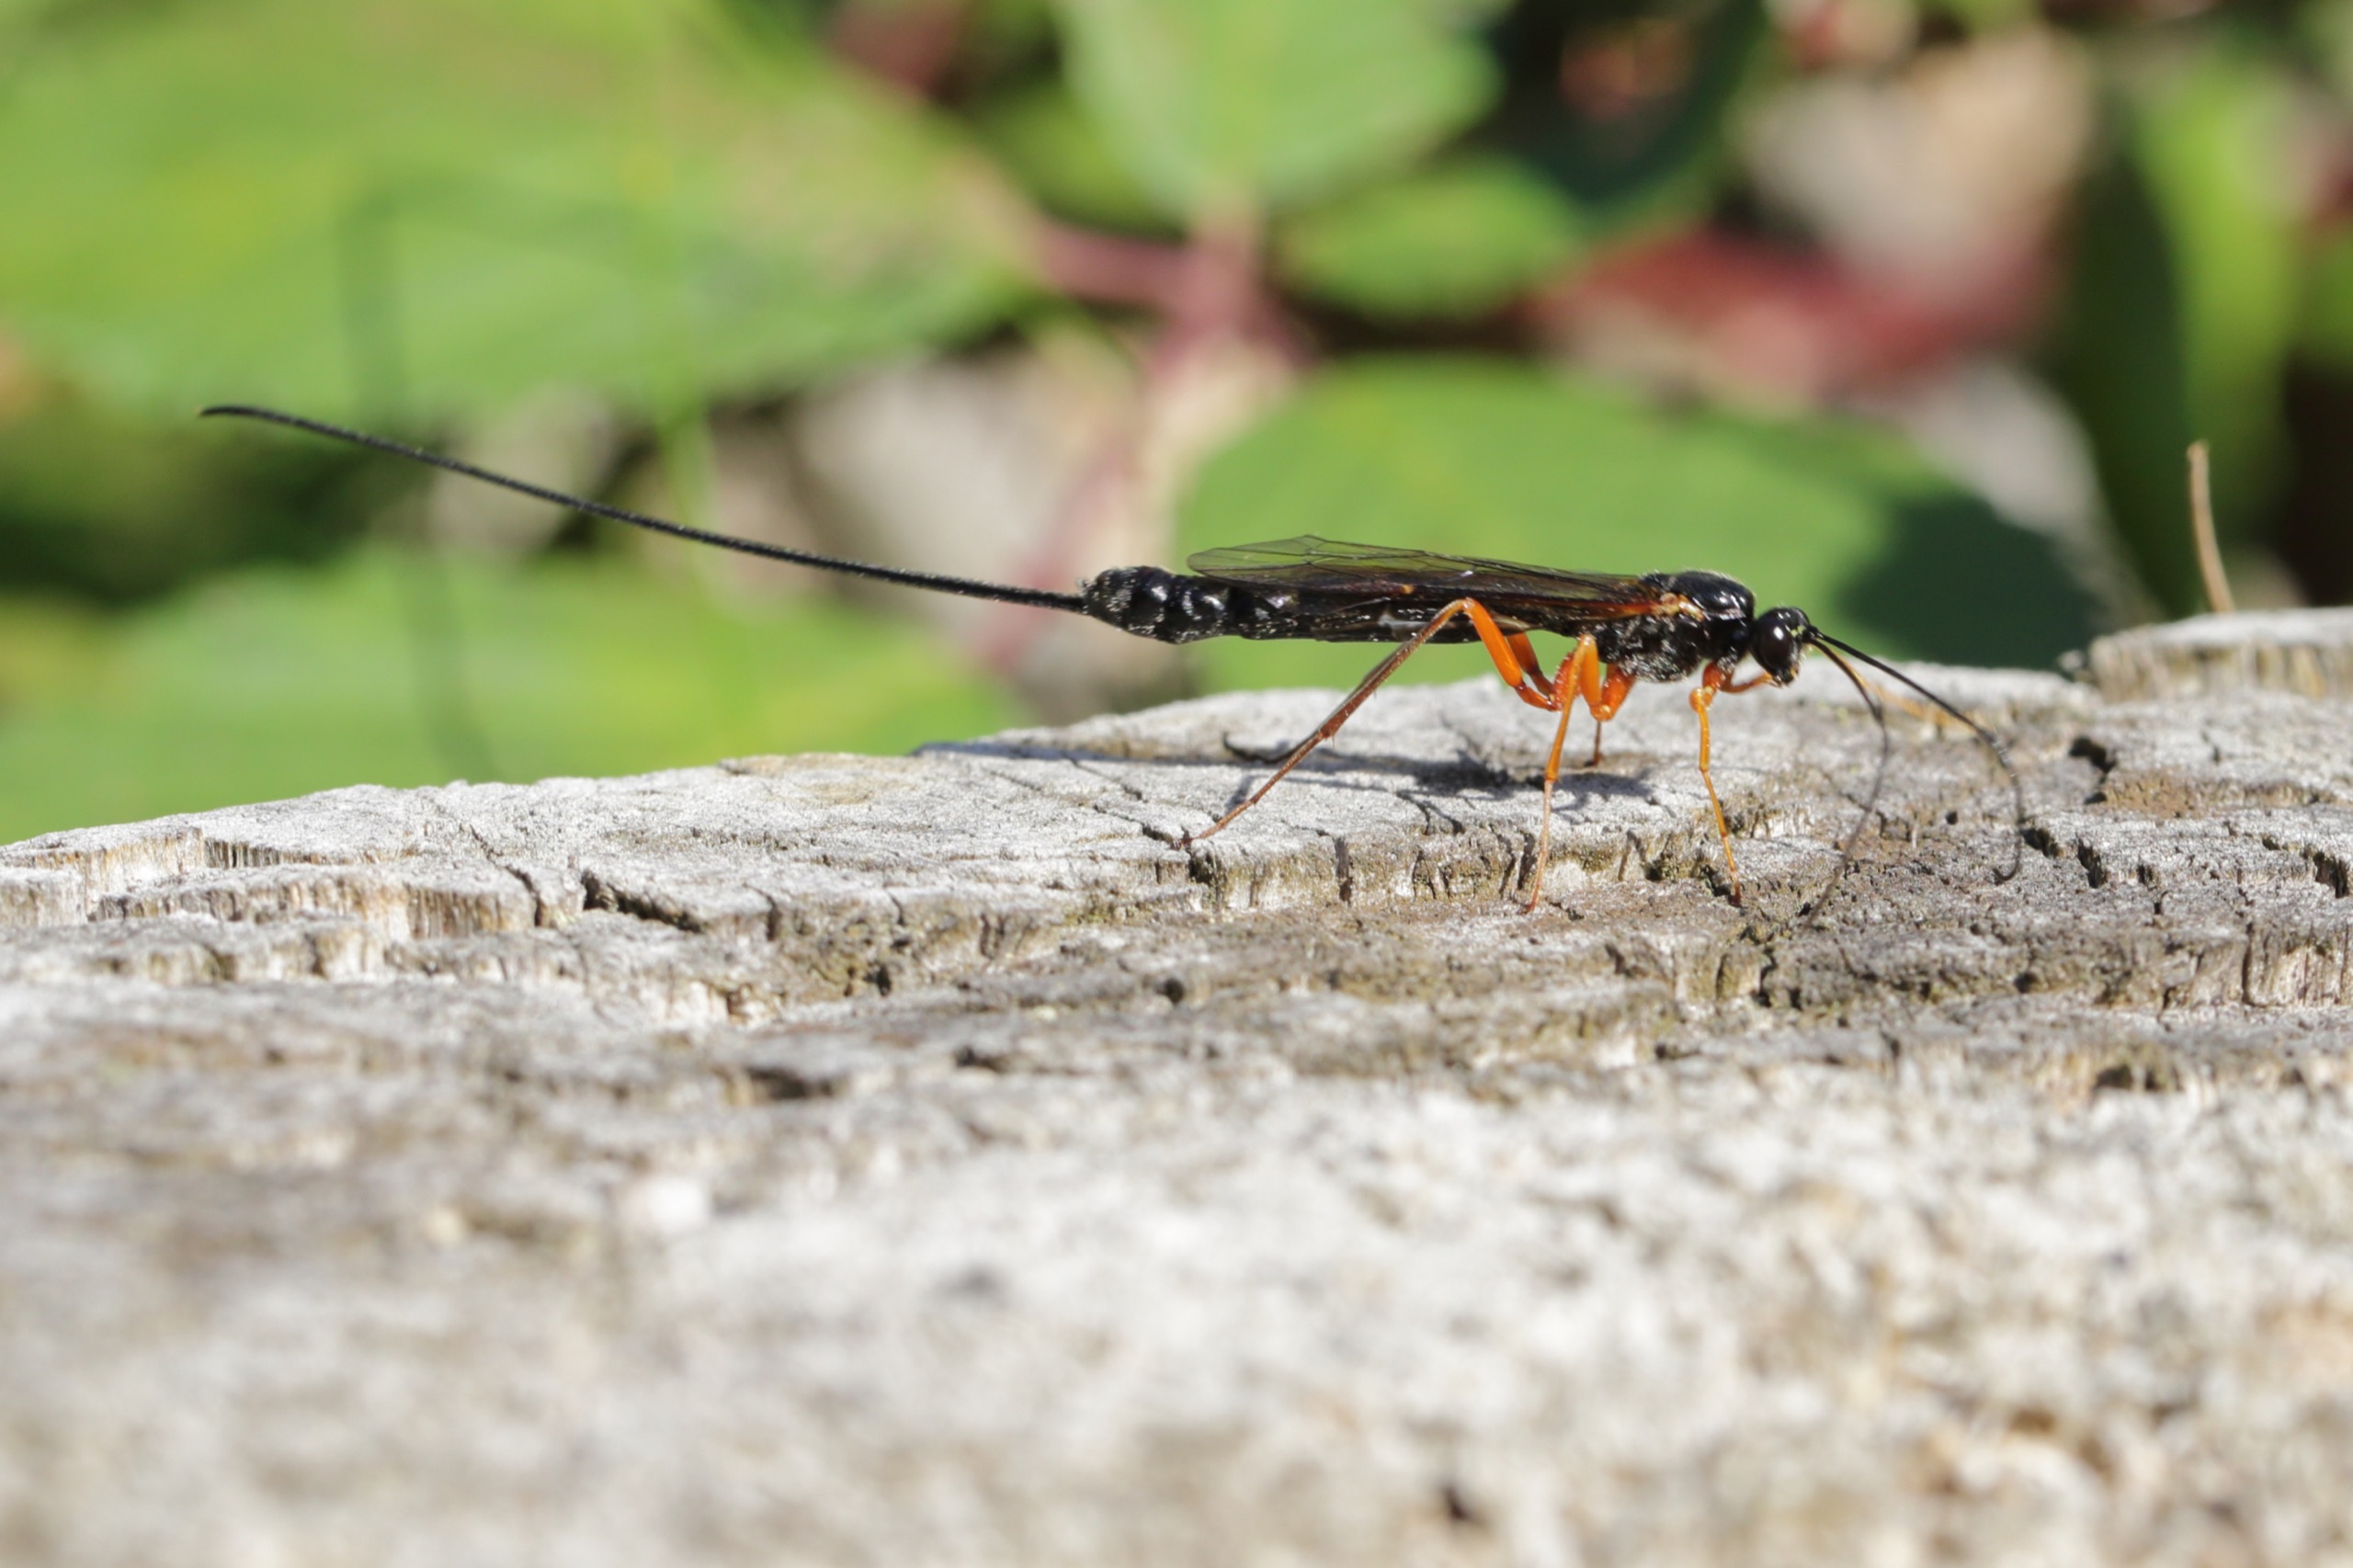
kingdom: Animalia
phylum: Arthropoda
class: Insecta
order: Hymenoptera
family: Ichneumonidae
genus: Dolichomitus
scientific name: Dolichomitus
